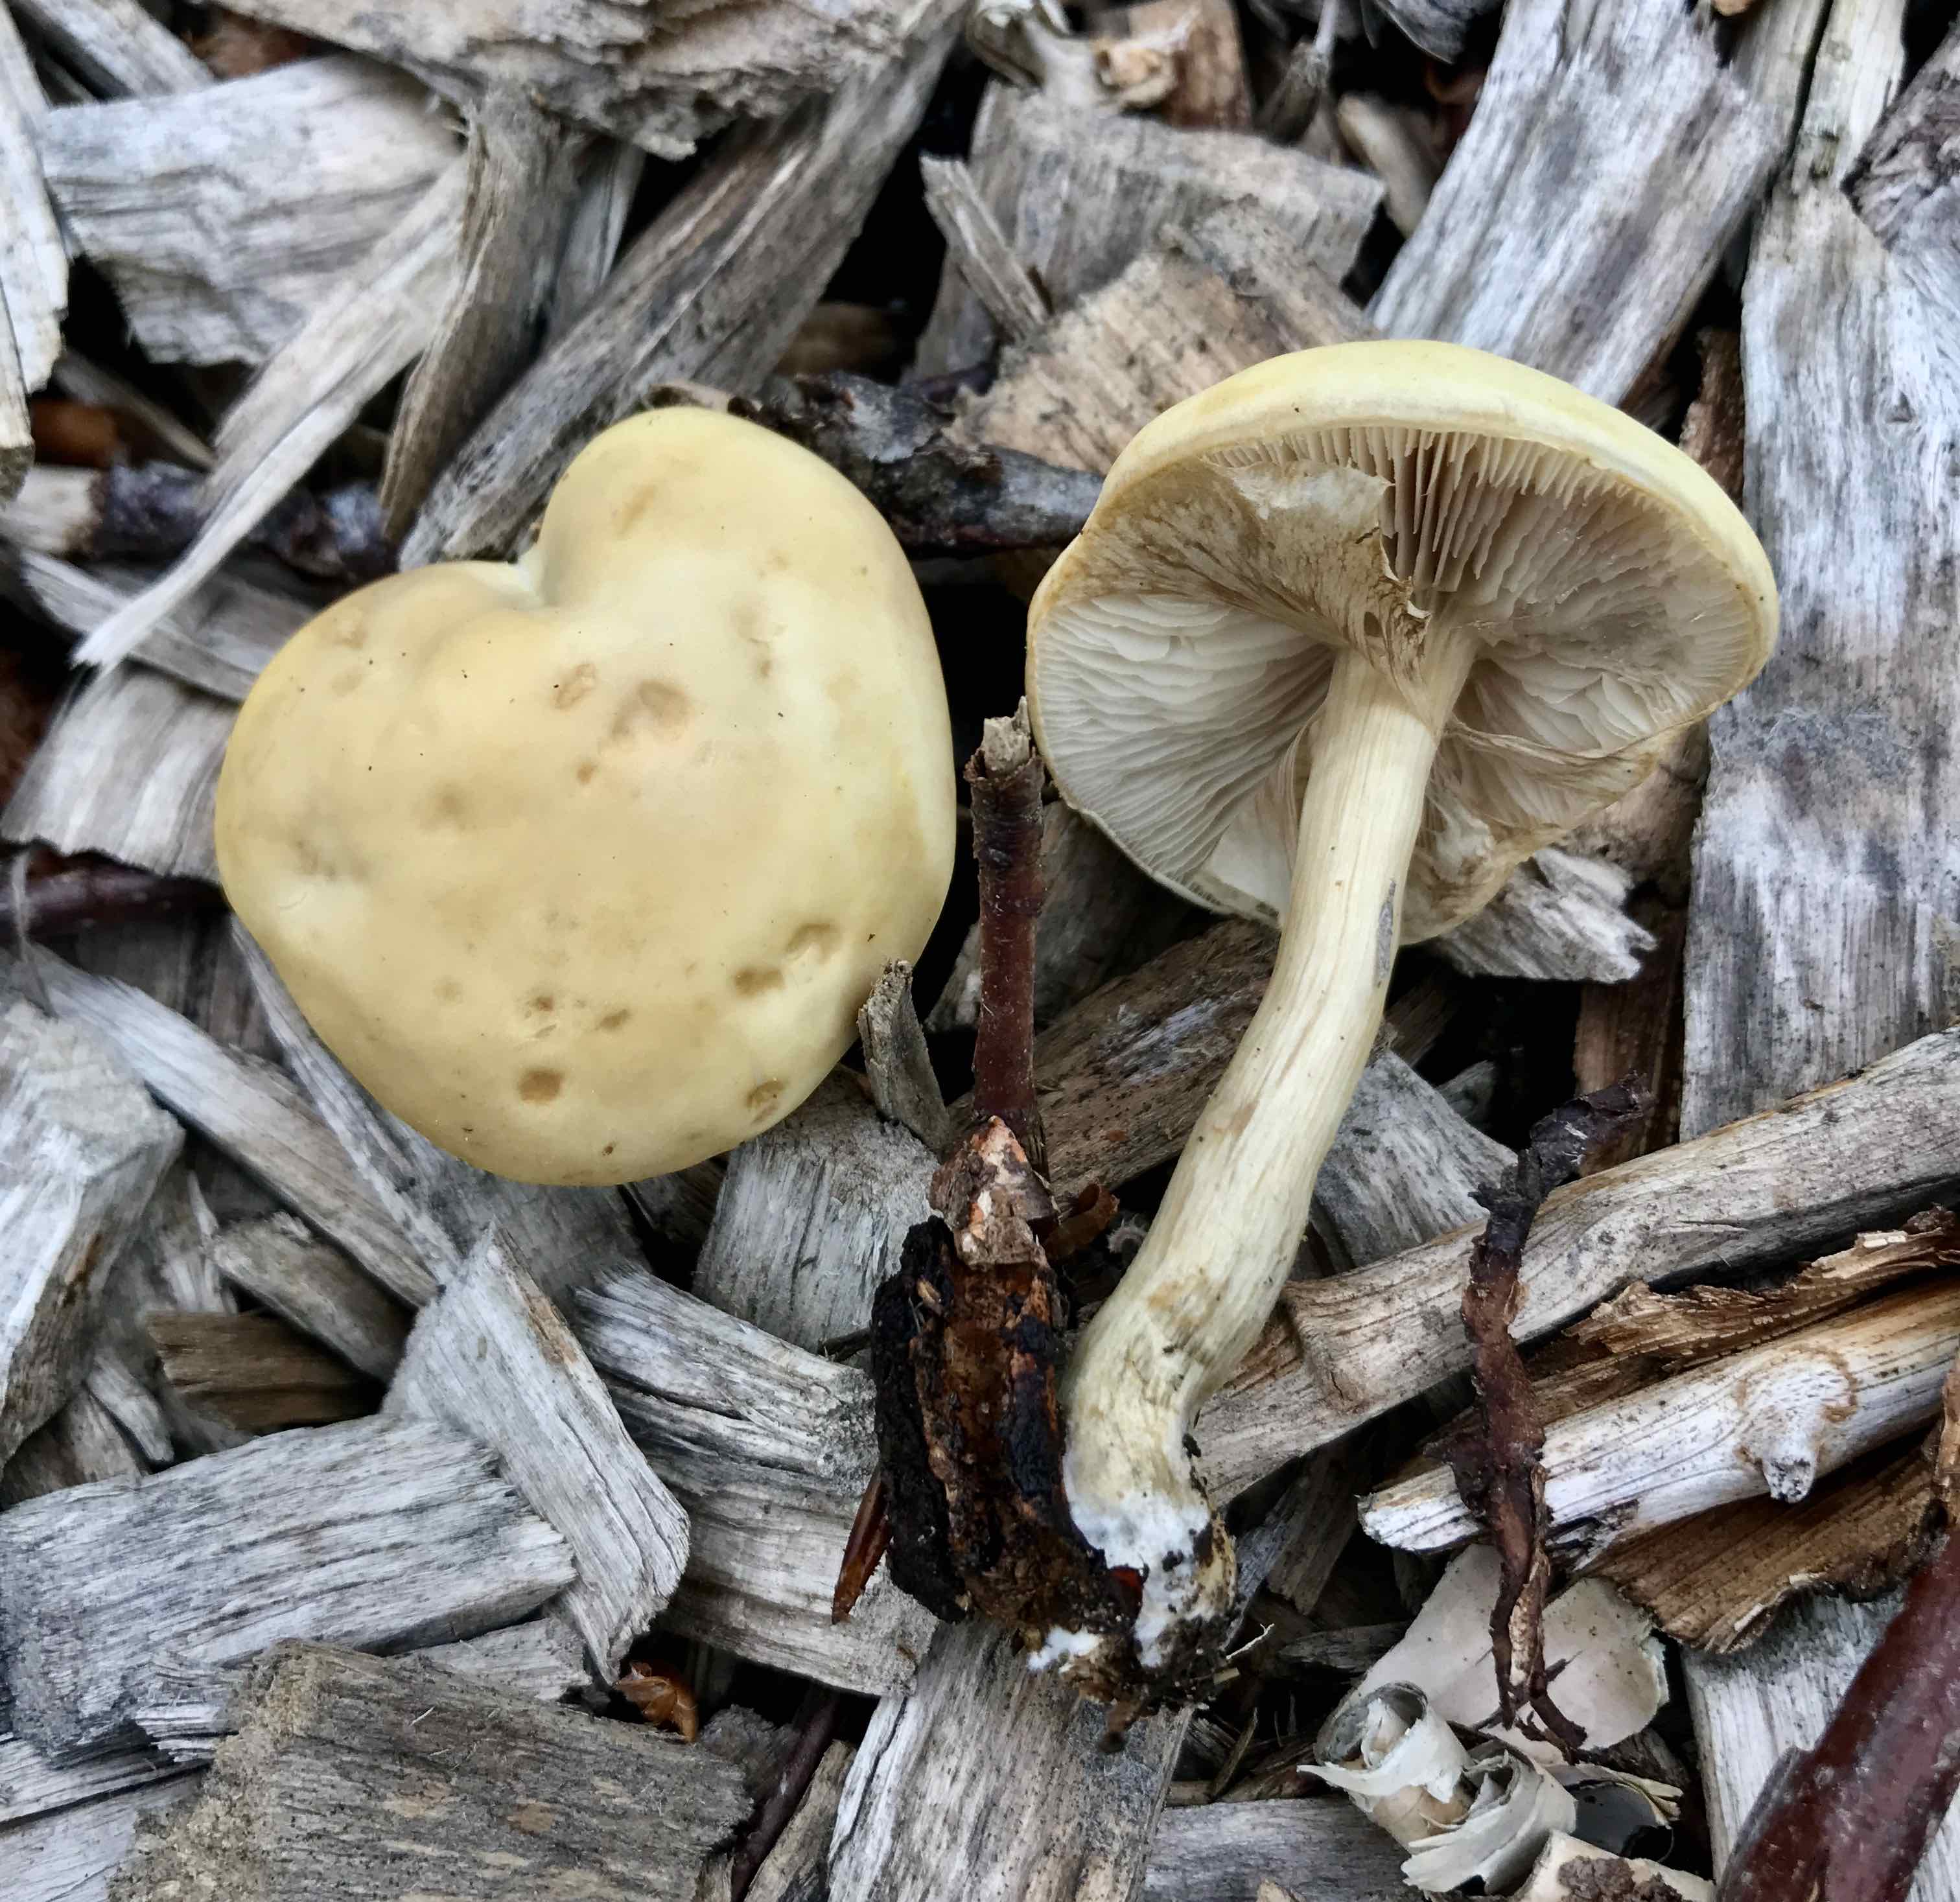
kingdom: Fungi
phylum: Basidiomycota
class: Agaricomycetes
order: Agaricales
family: Strophariaceae
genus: Agrocybe
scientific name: Agrocybe praecox
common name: tidlig agerhat
